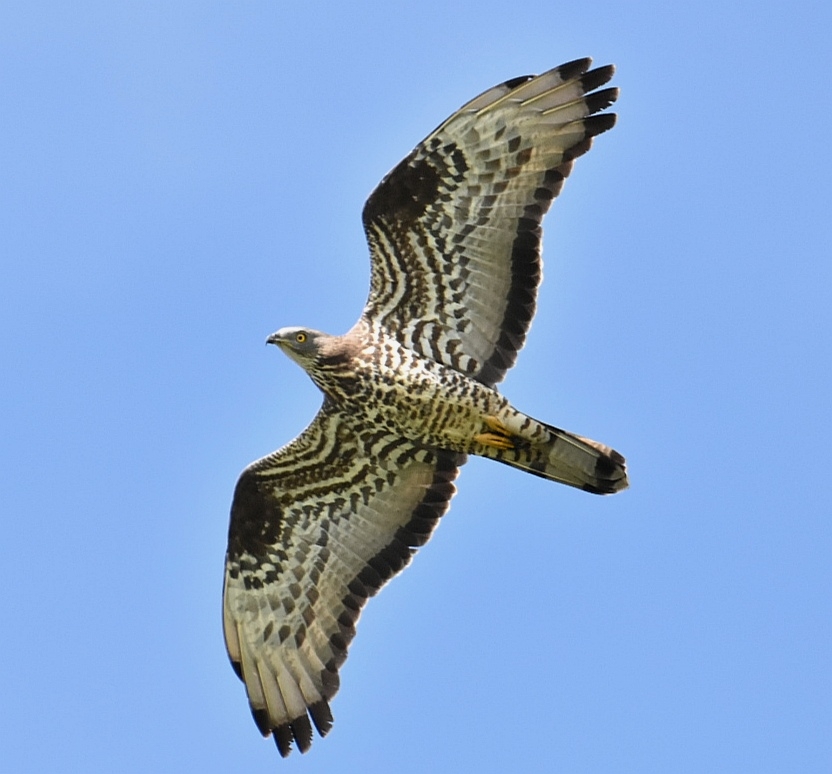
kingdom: Animalia
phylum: Chordata
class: Aves
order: Accipitriformes
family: Accipitridae
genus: Pernis
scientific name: Pernis apivorus
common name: Hvepsevåge
